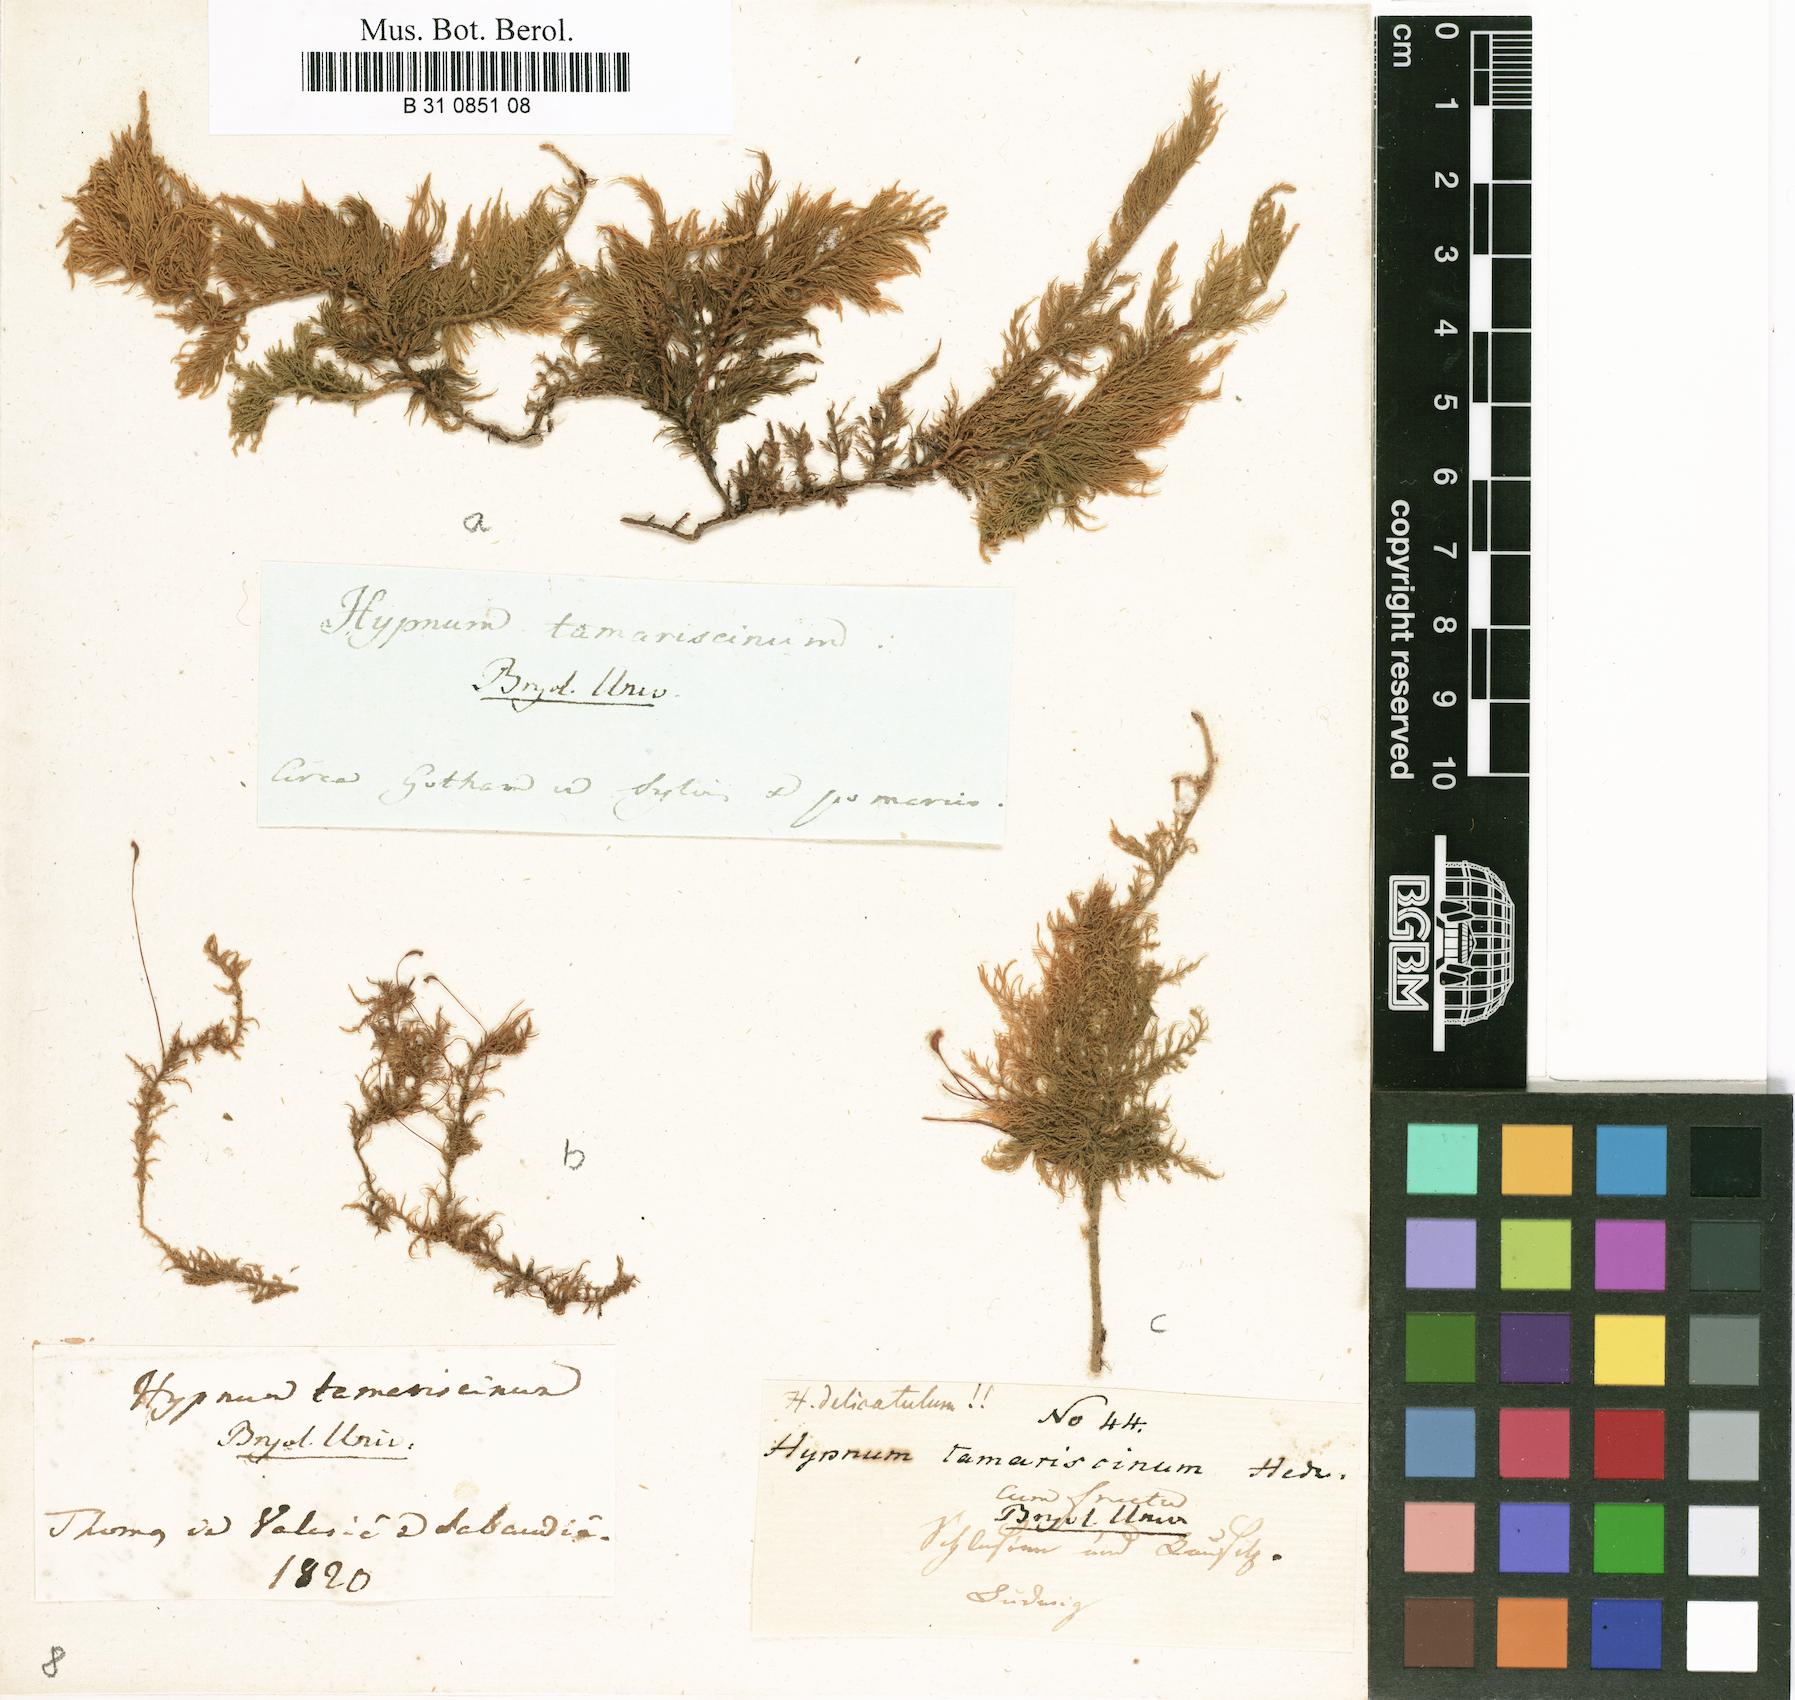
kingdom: Plantae
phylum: Bryophyta
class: Bryopsida
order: Hypnales
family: Thuidiaceae
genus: Thuidium
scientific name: Thuidium tamariscinum
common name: Common tamarisk-moss
